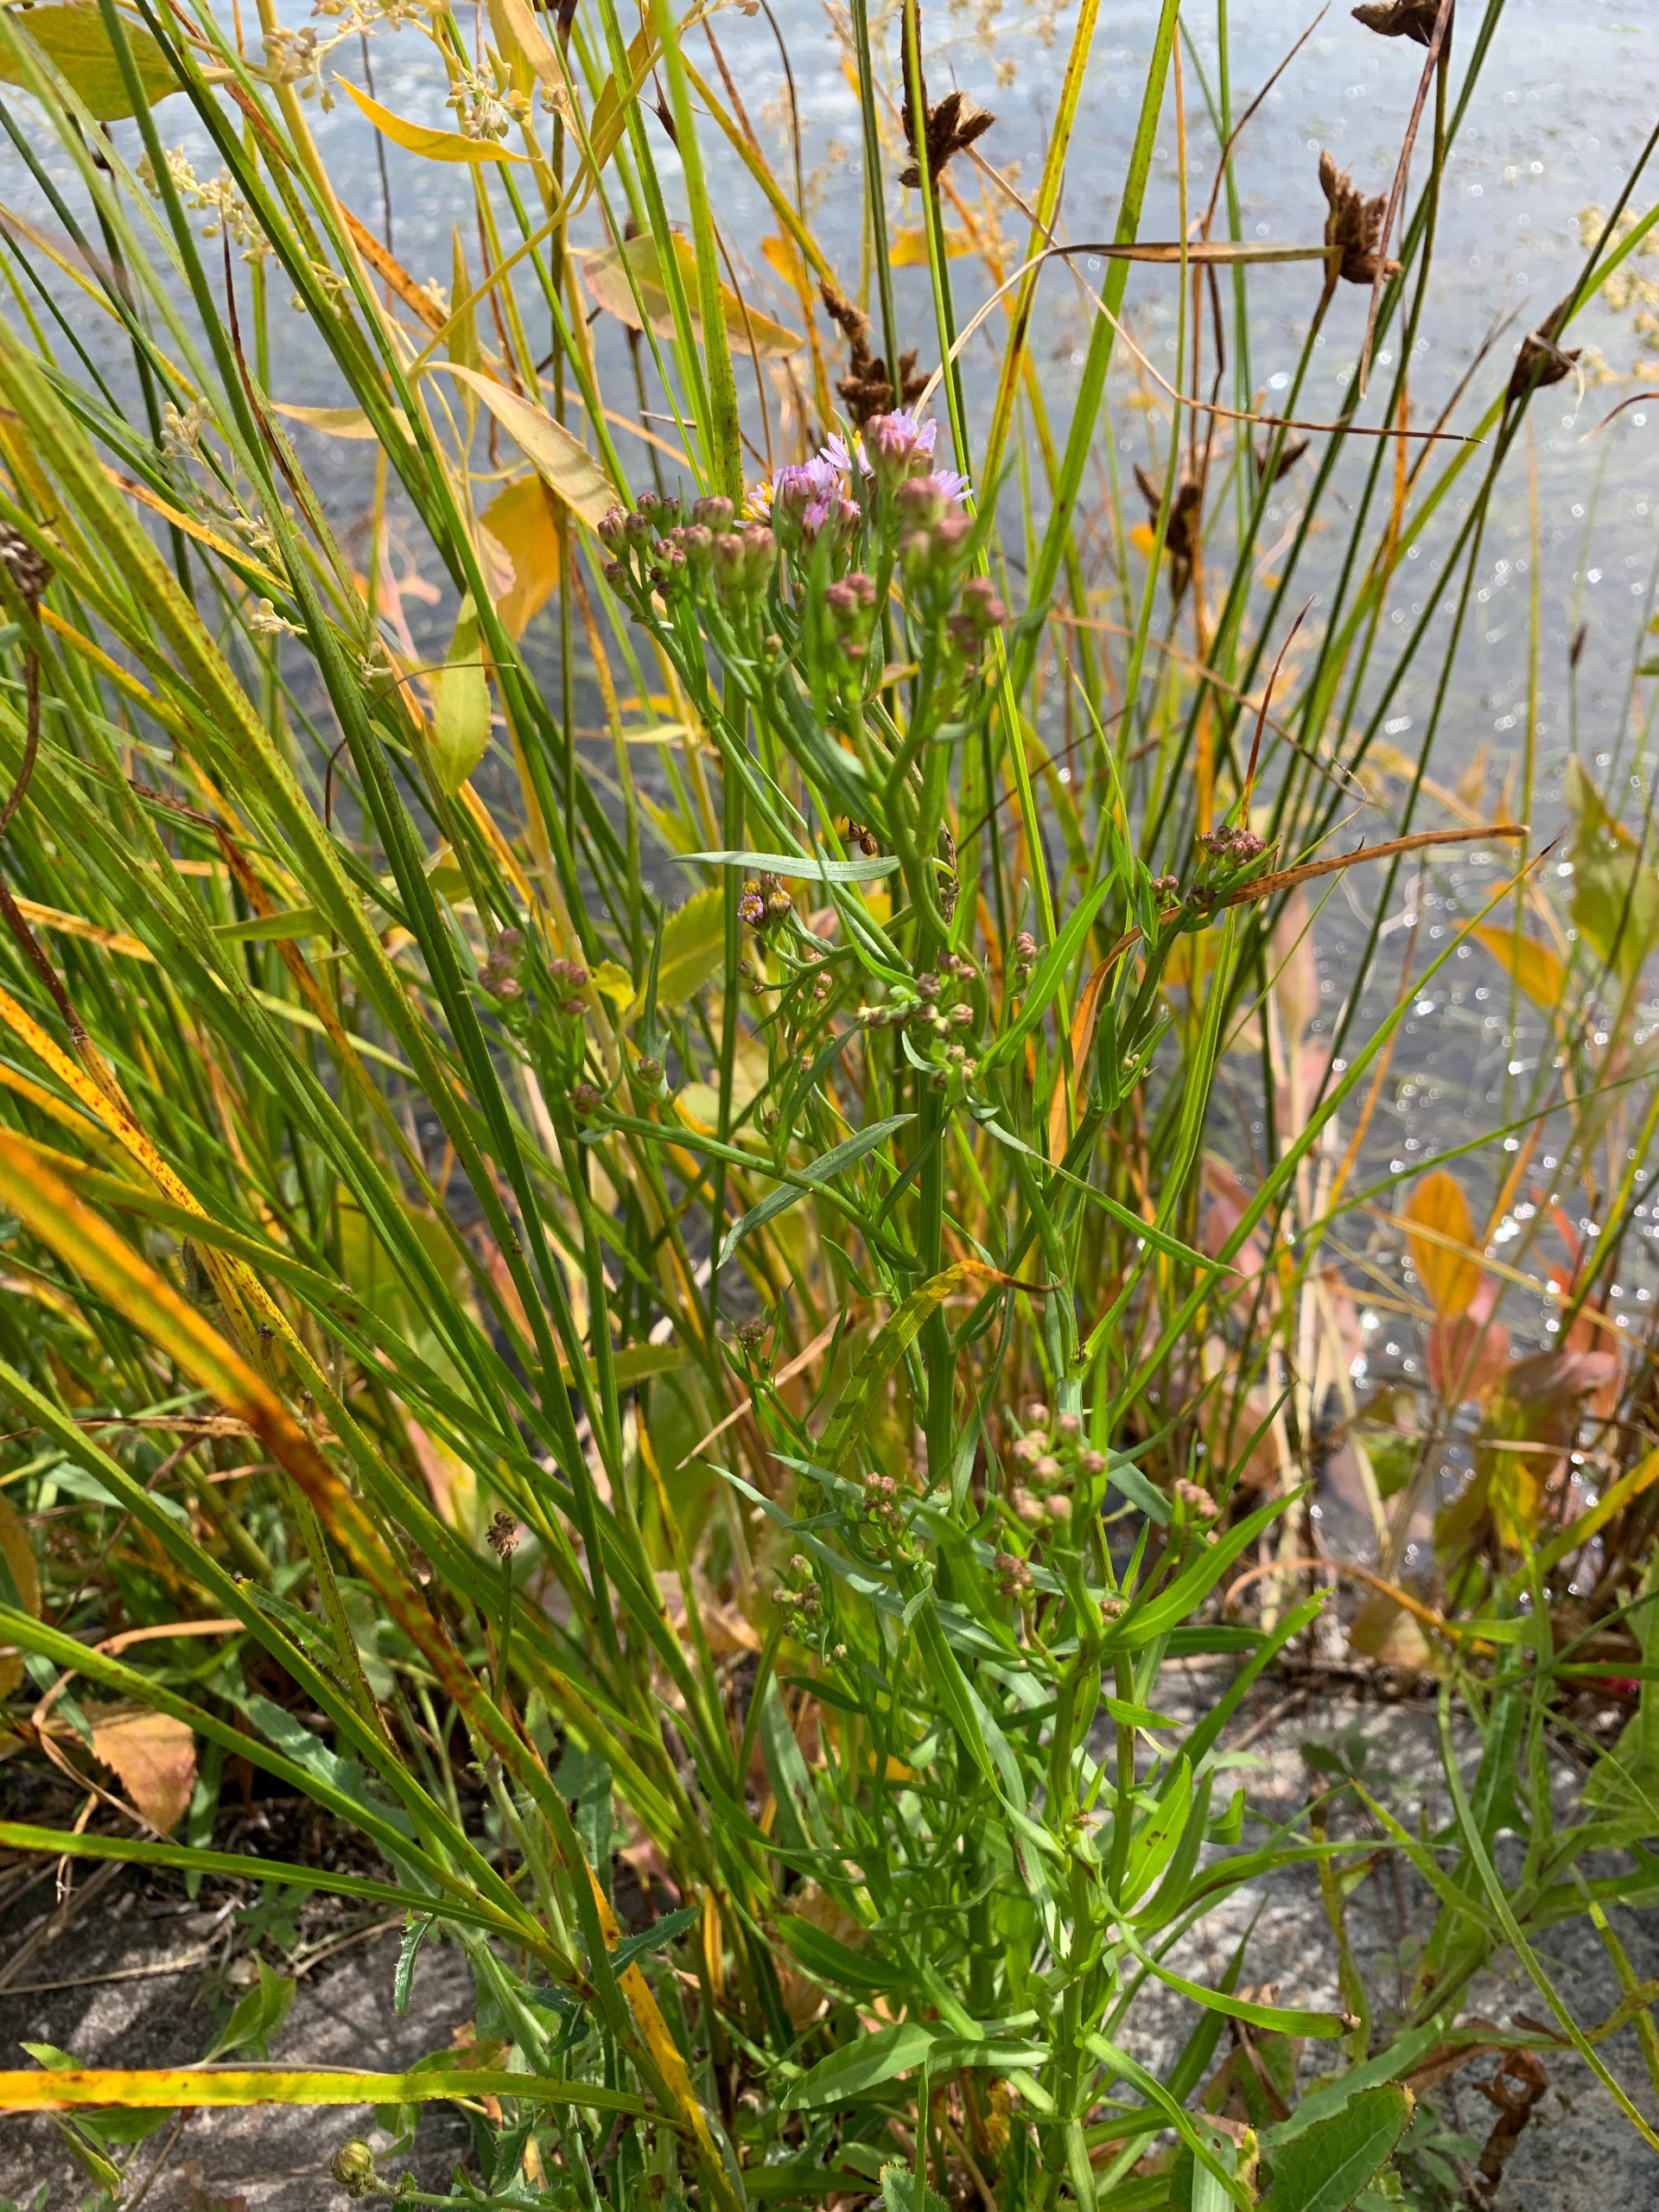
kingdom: Plantae
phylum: Tracheophyta
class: Magnoliopsida
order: Asterales
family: Asteraceae
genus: Tripolium
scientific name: Tripolium pannonicum
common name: Strandasters
